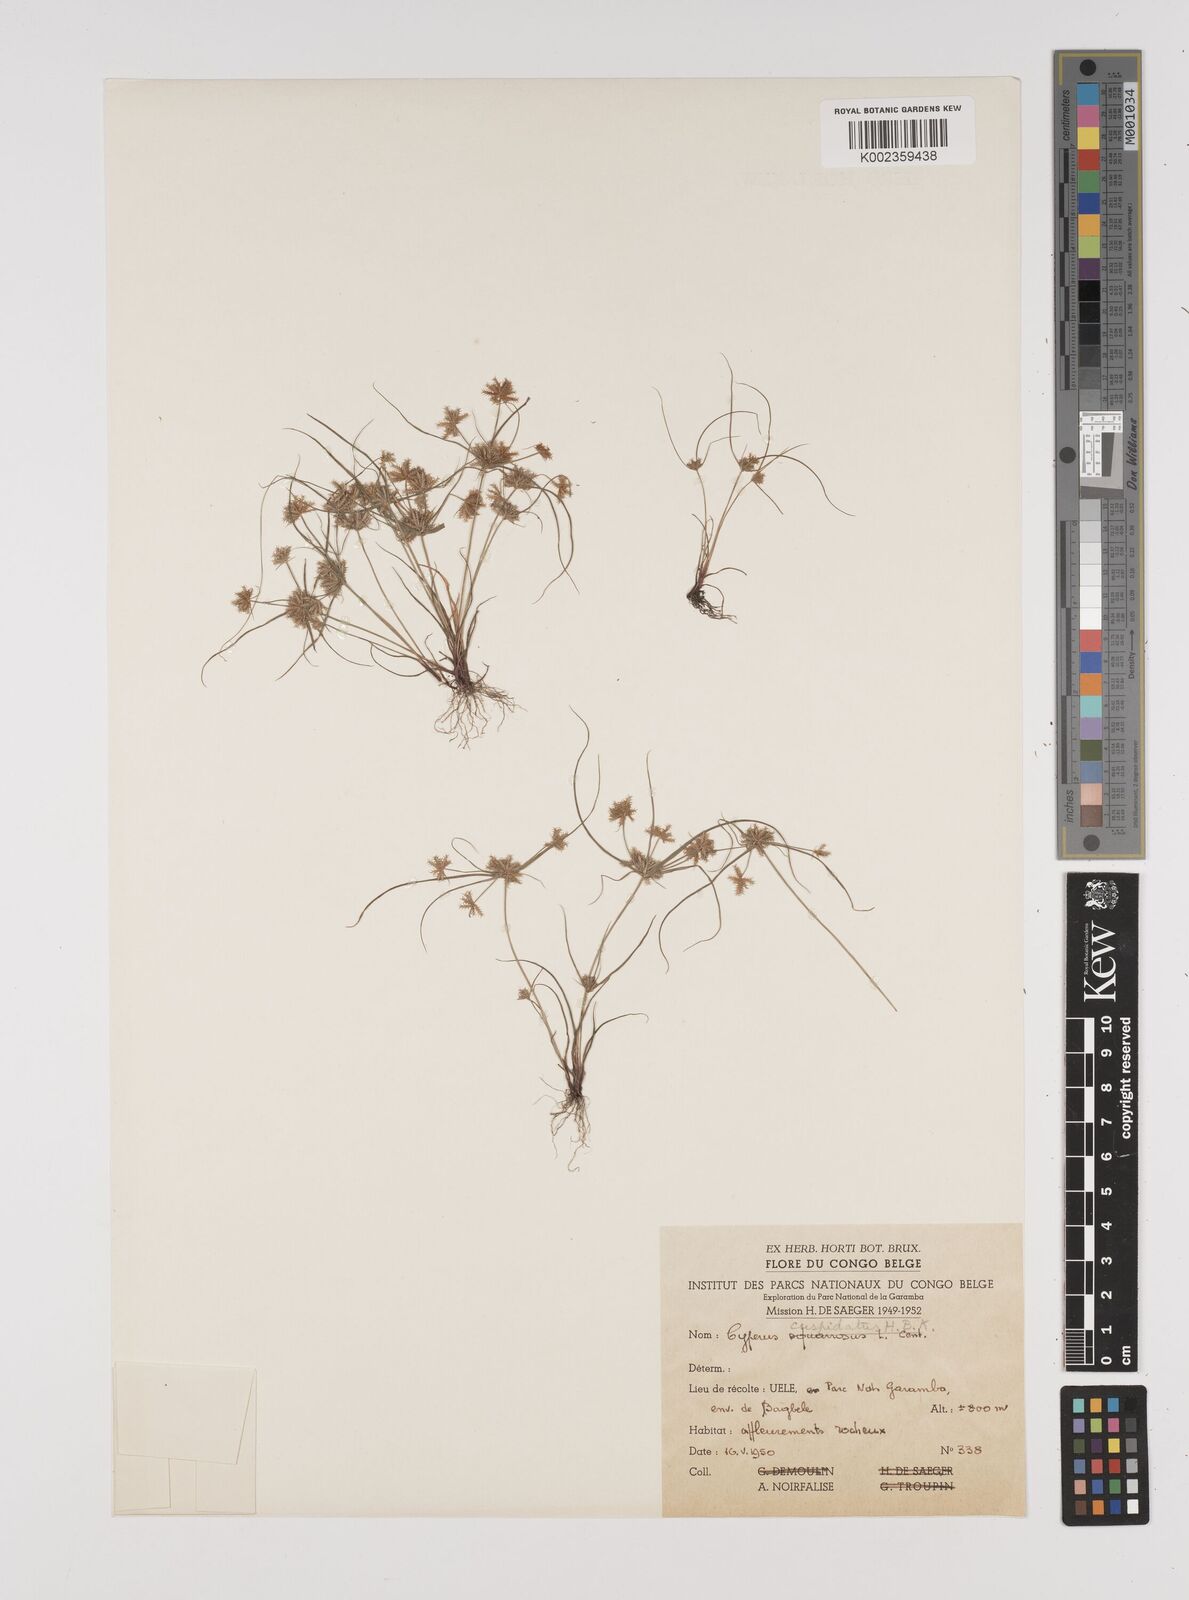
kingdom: Plantae
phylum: Tracheophyta
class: Liliopsida
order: Poales
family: Cyperaceae
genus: Cyperus
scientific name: Cyperus cuspidatus
